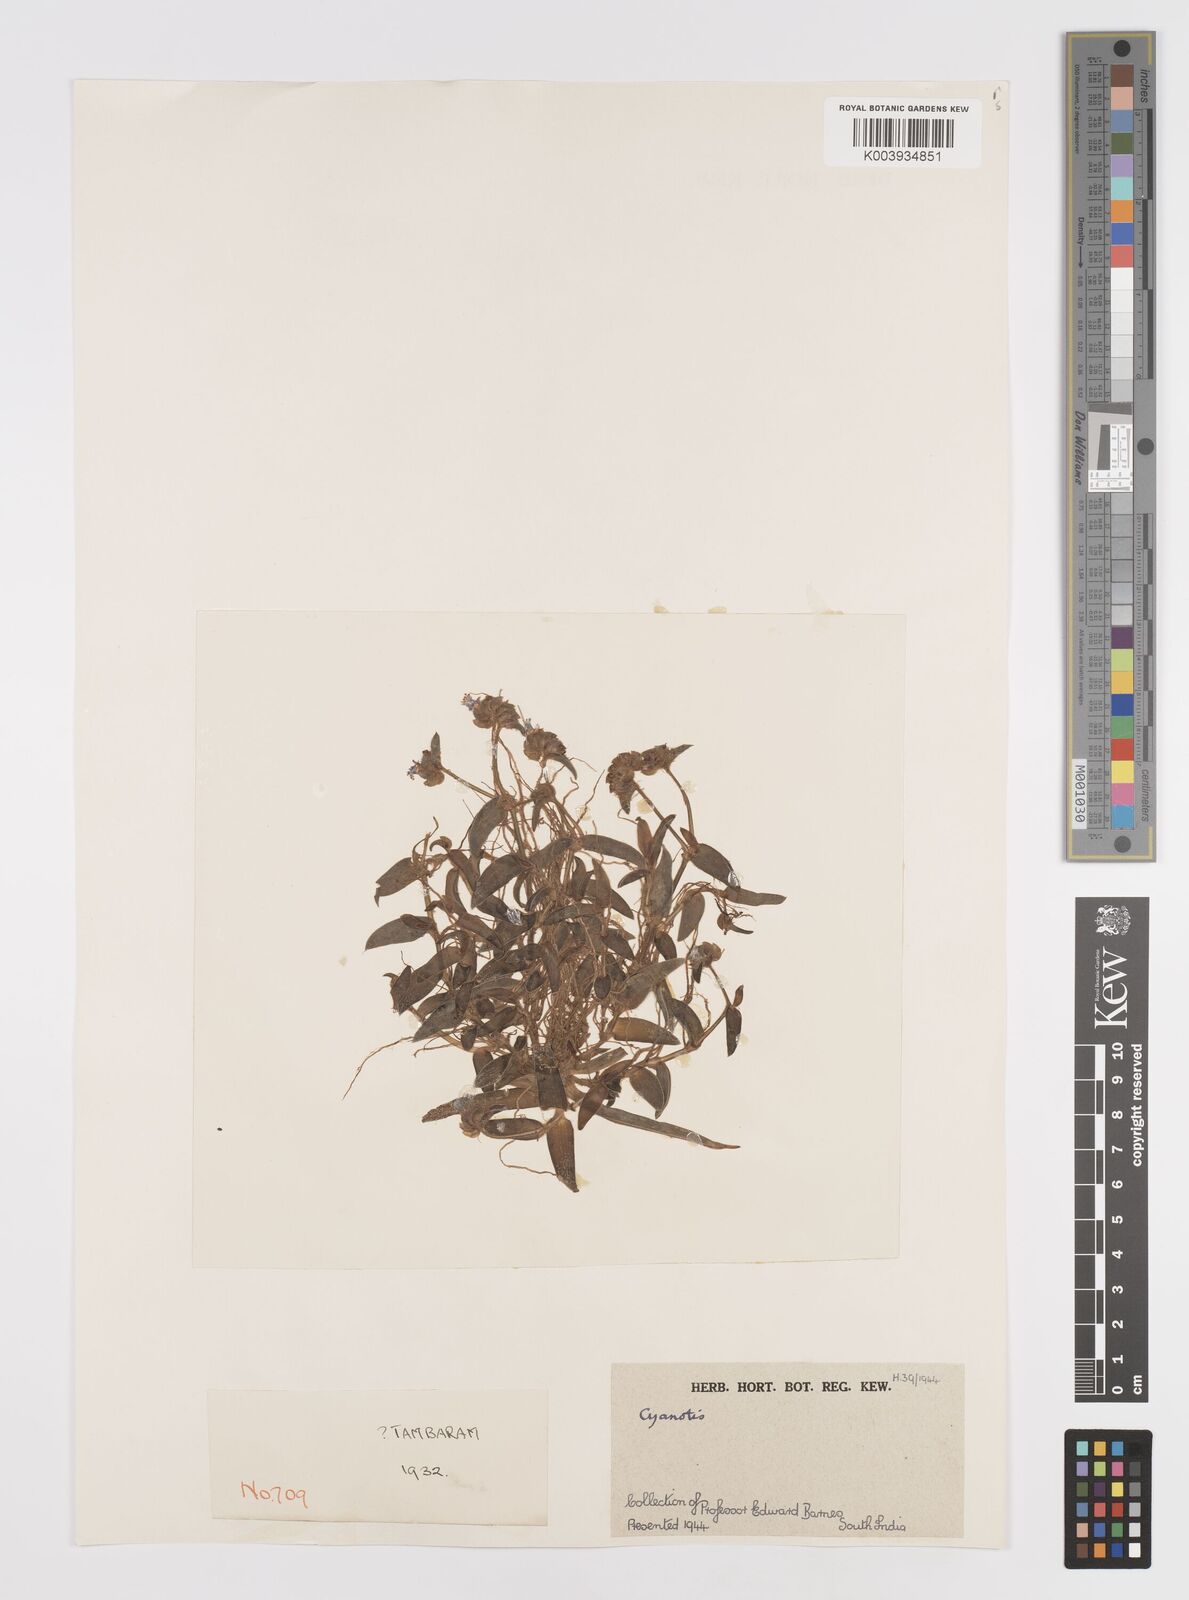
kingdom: Plantae
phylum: Tracheophyta
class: Liliopsida
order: Commelinales
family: Commelinaceae
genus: Cyanotis
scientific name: Cyanotis
